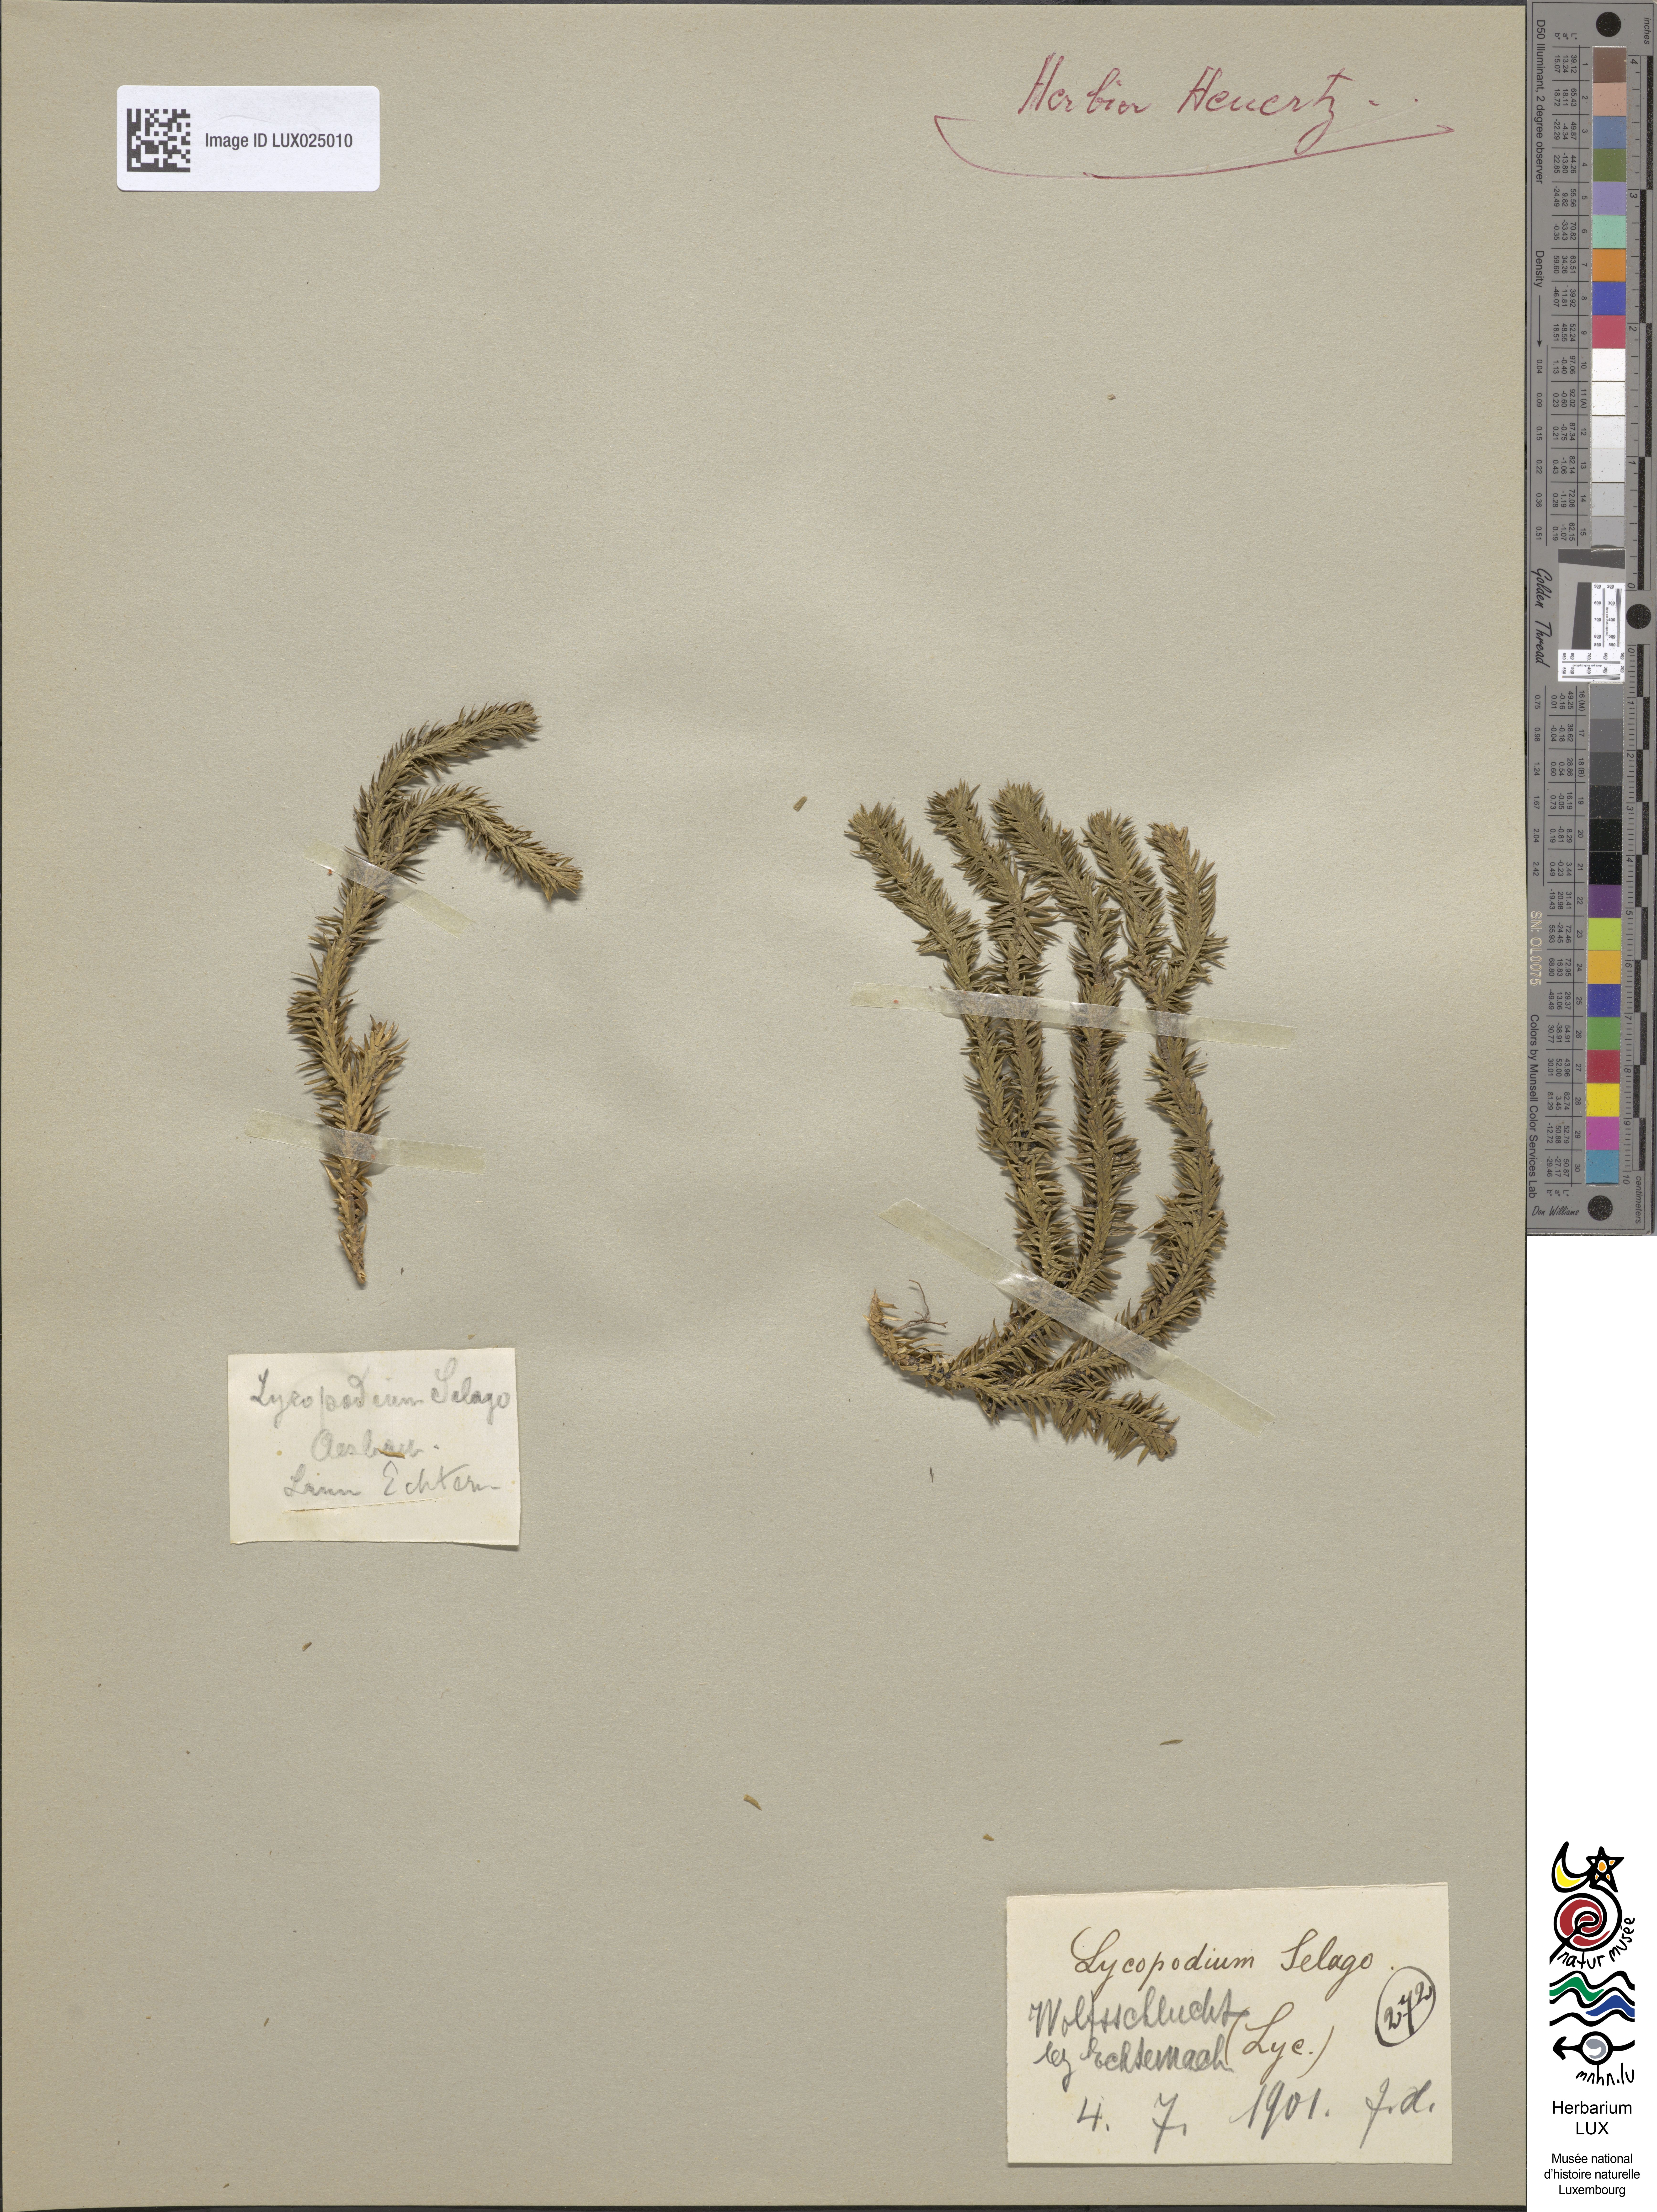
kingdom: Plantae
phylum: Tracheophyta
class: Lycopodiopsida
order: Lycopodiales
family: Lycopodiaceae
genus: Huperzia
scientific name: Huperzia selago
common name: Northern firmoss
